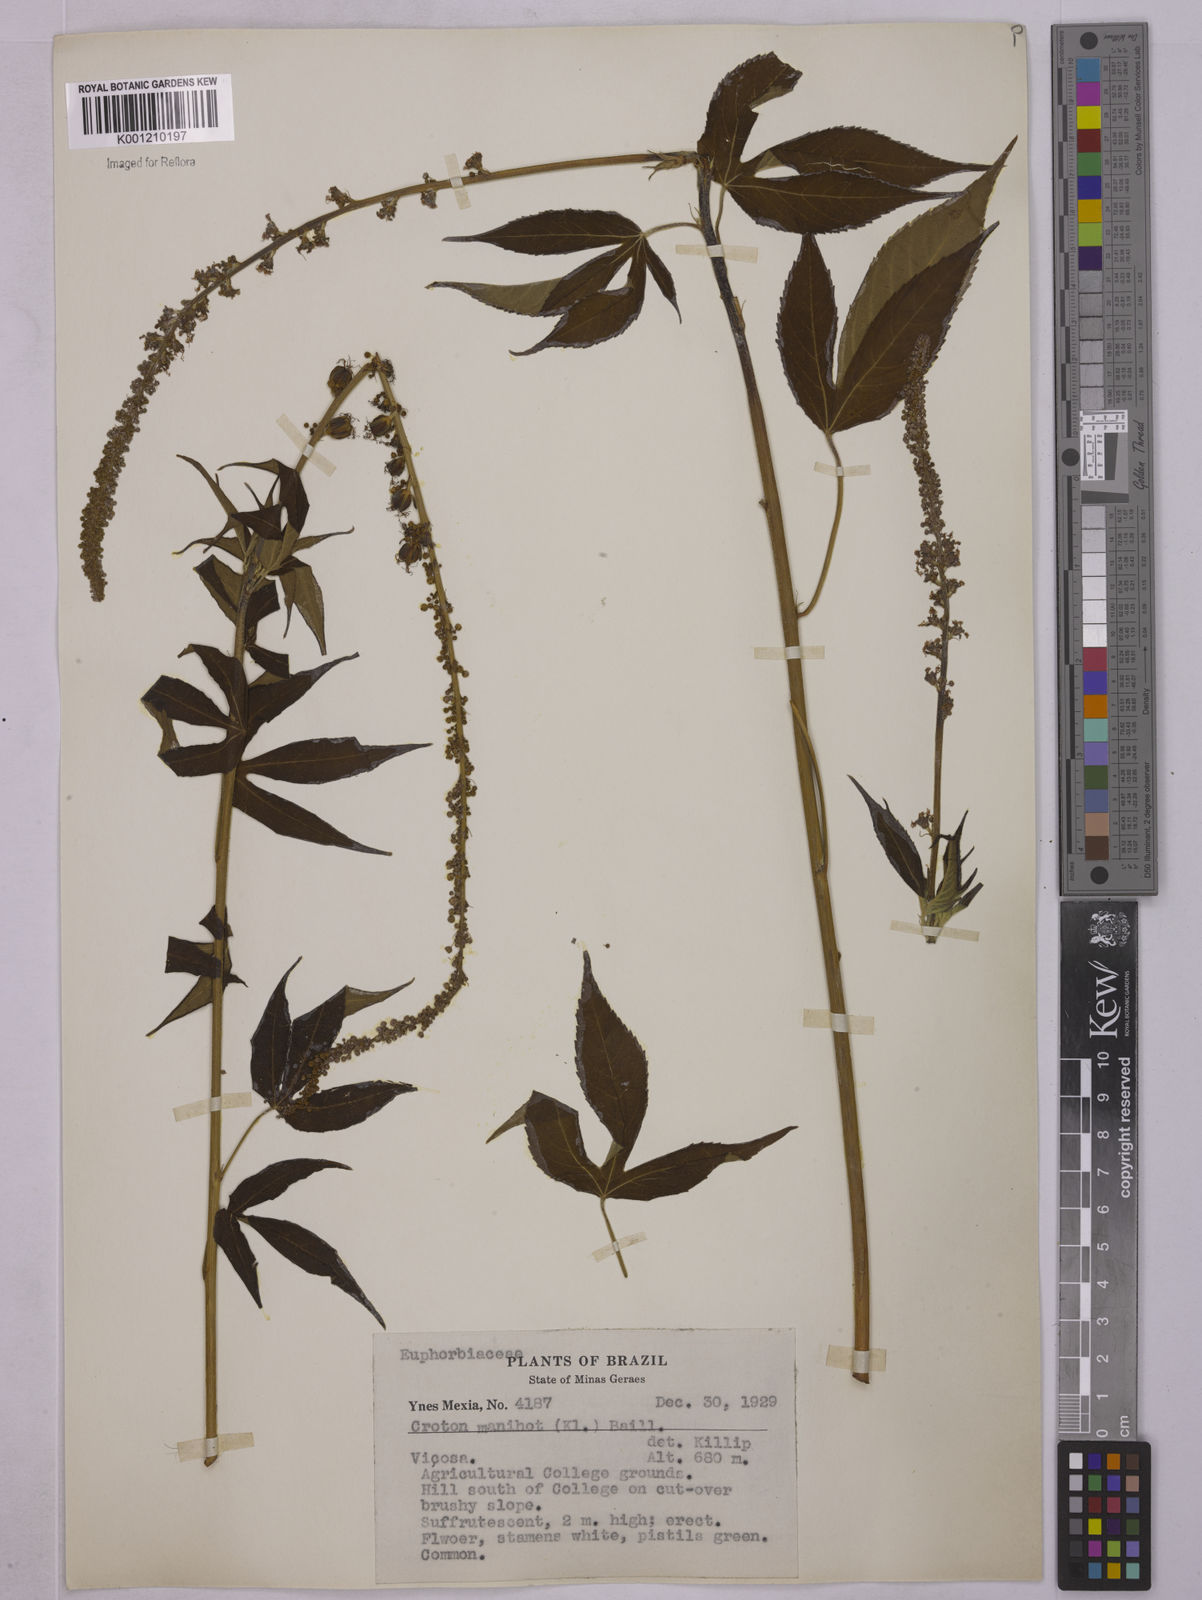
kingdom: Plantae
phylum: Tracheophyta
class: Magnoliopsida
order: Malpighiales
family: Euphorbiaceae
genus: Astraea
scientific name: Astraea lobata
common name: Lobed croton
